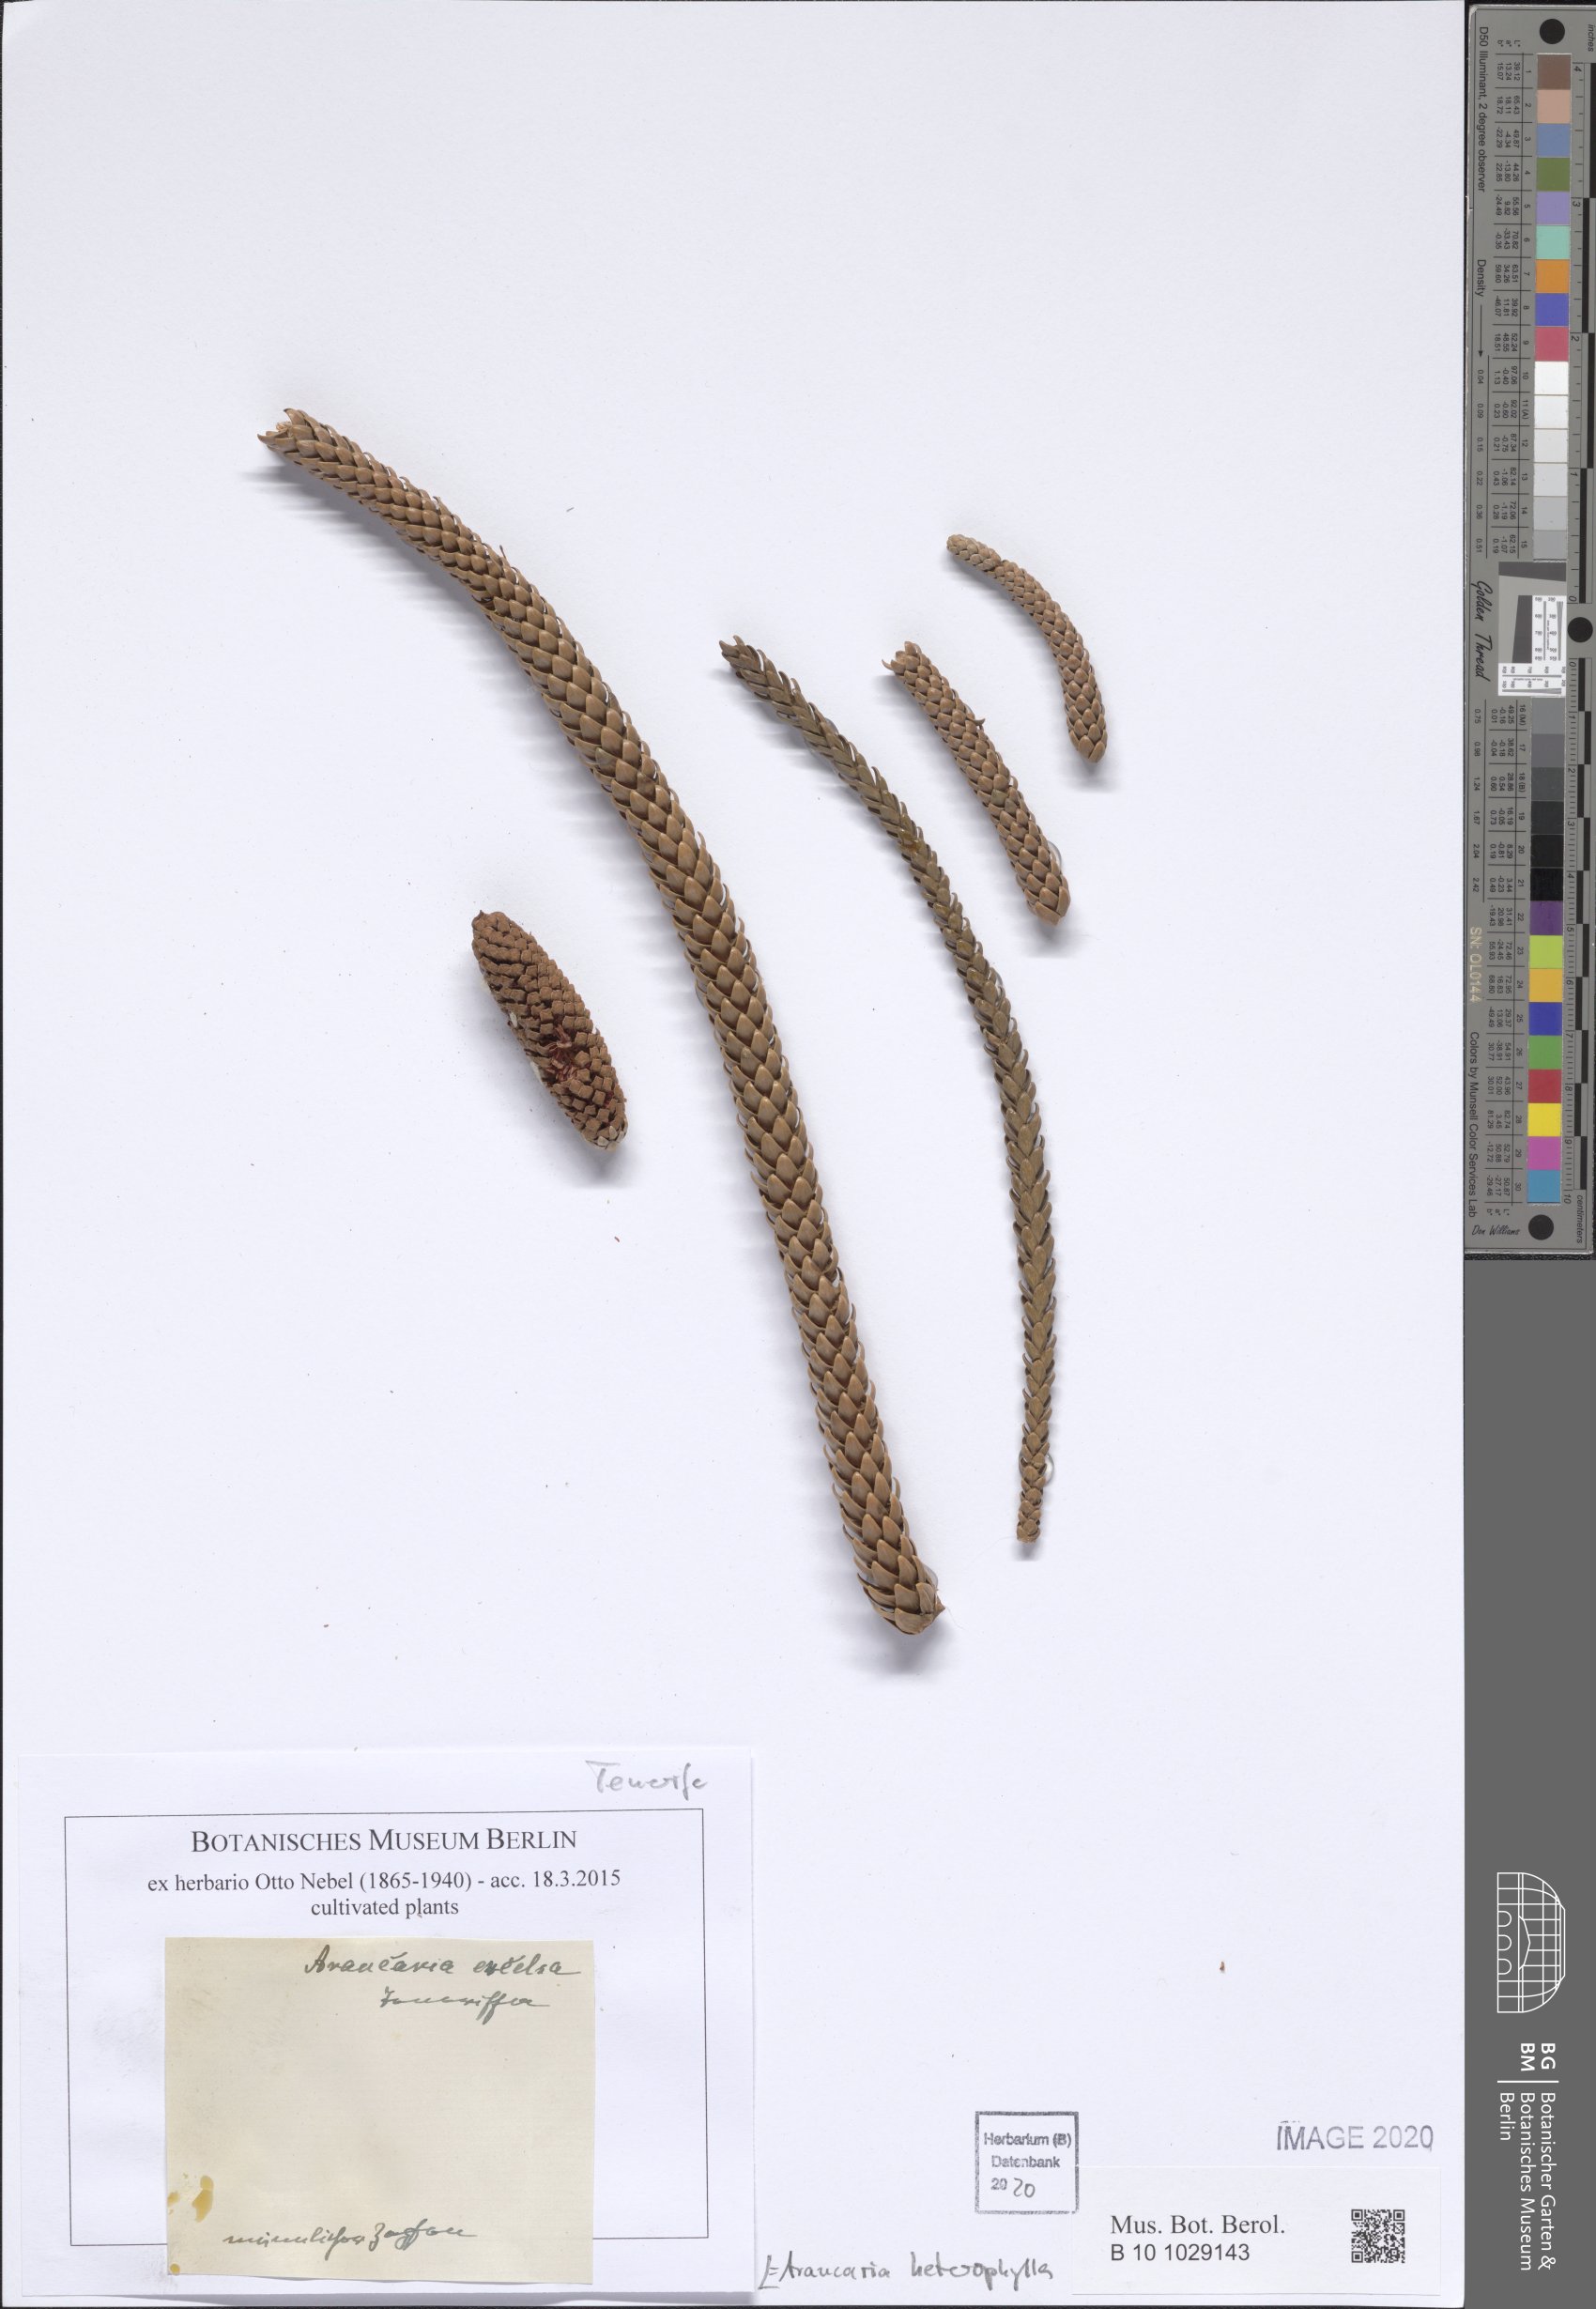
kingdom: Plantae
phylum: Tracheophyta
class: Pinopsida
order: Pinales
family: Araucariaceae
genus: Araucaria
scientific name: Araucaria heterophylla
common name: Norfolk island pine
